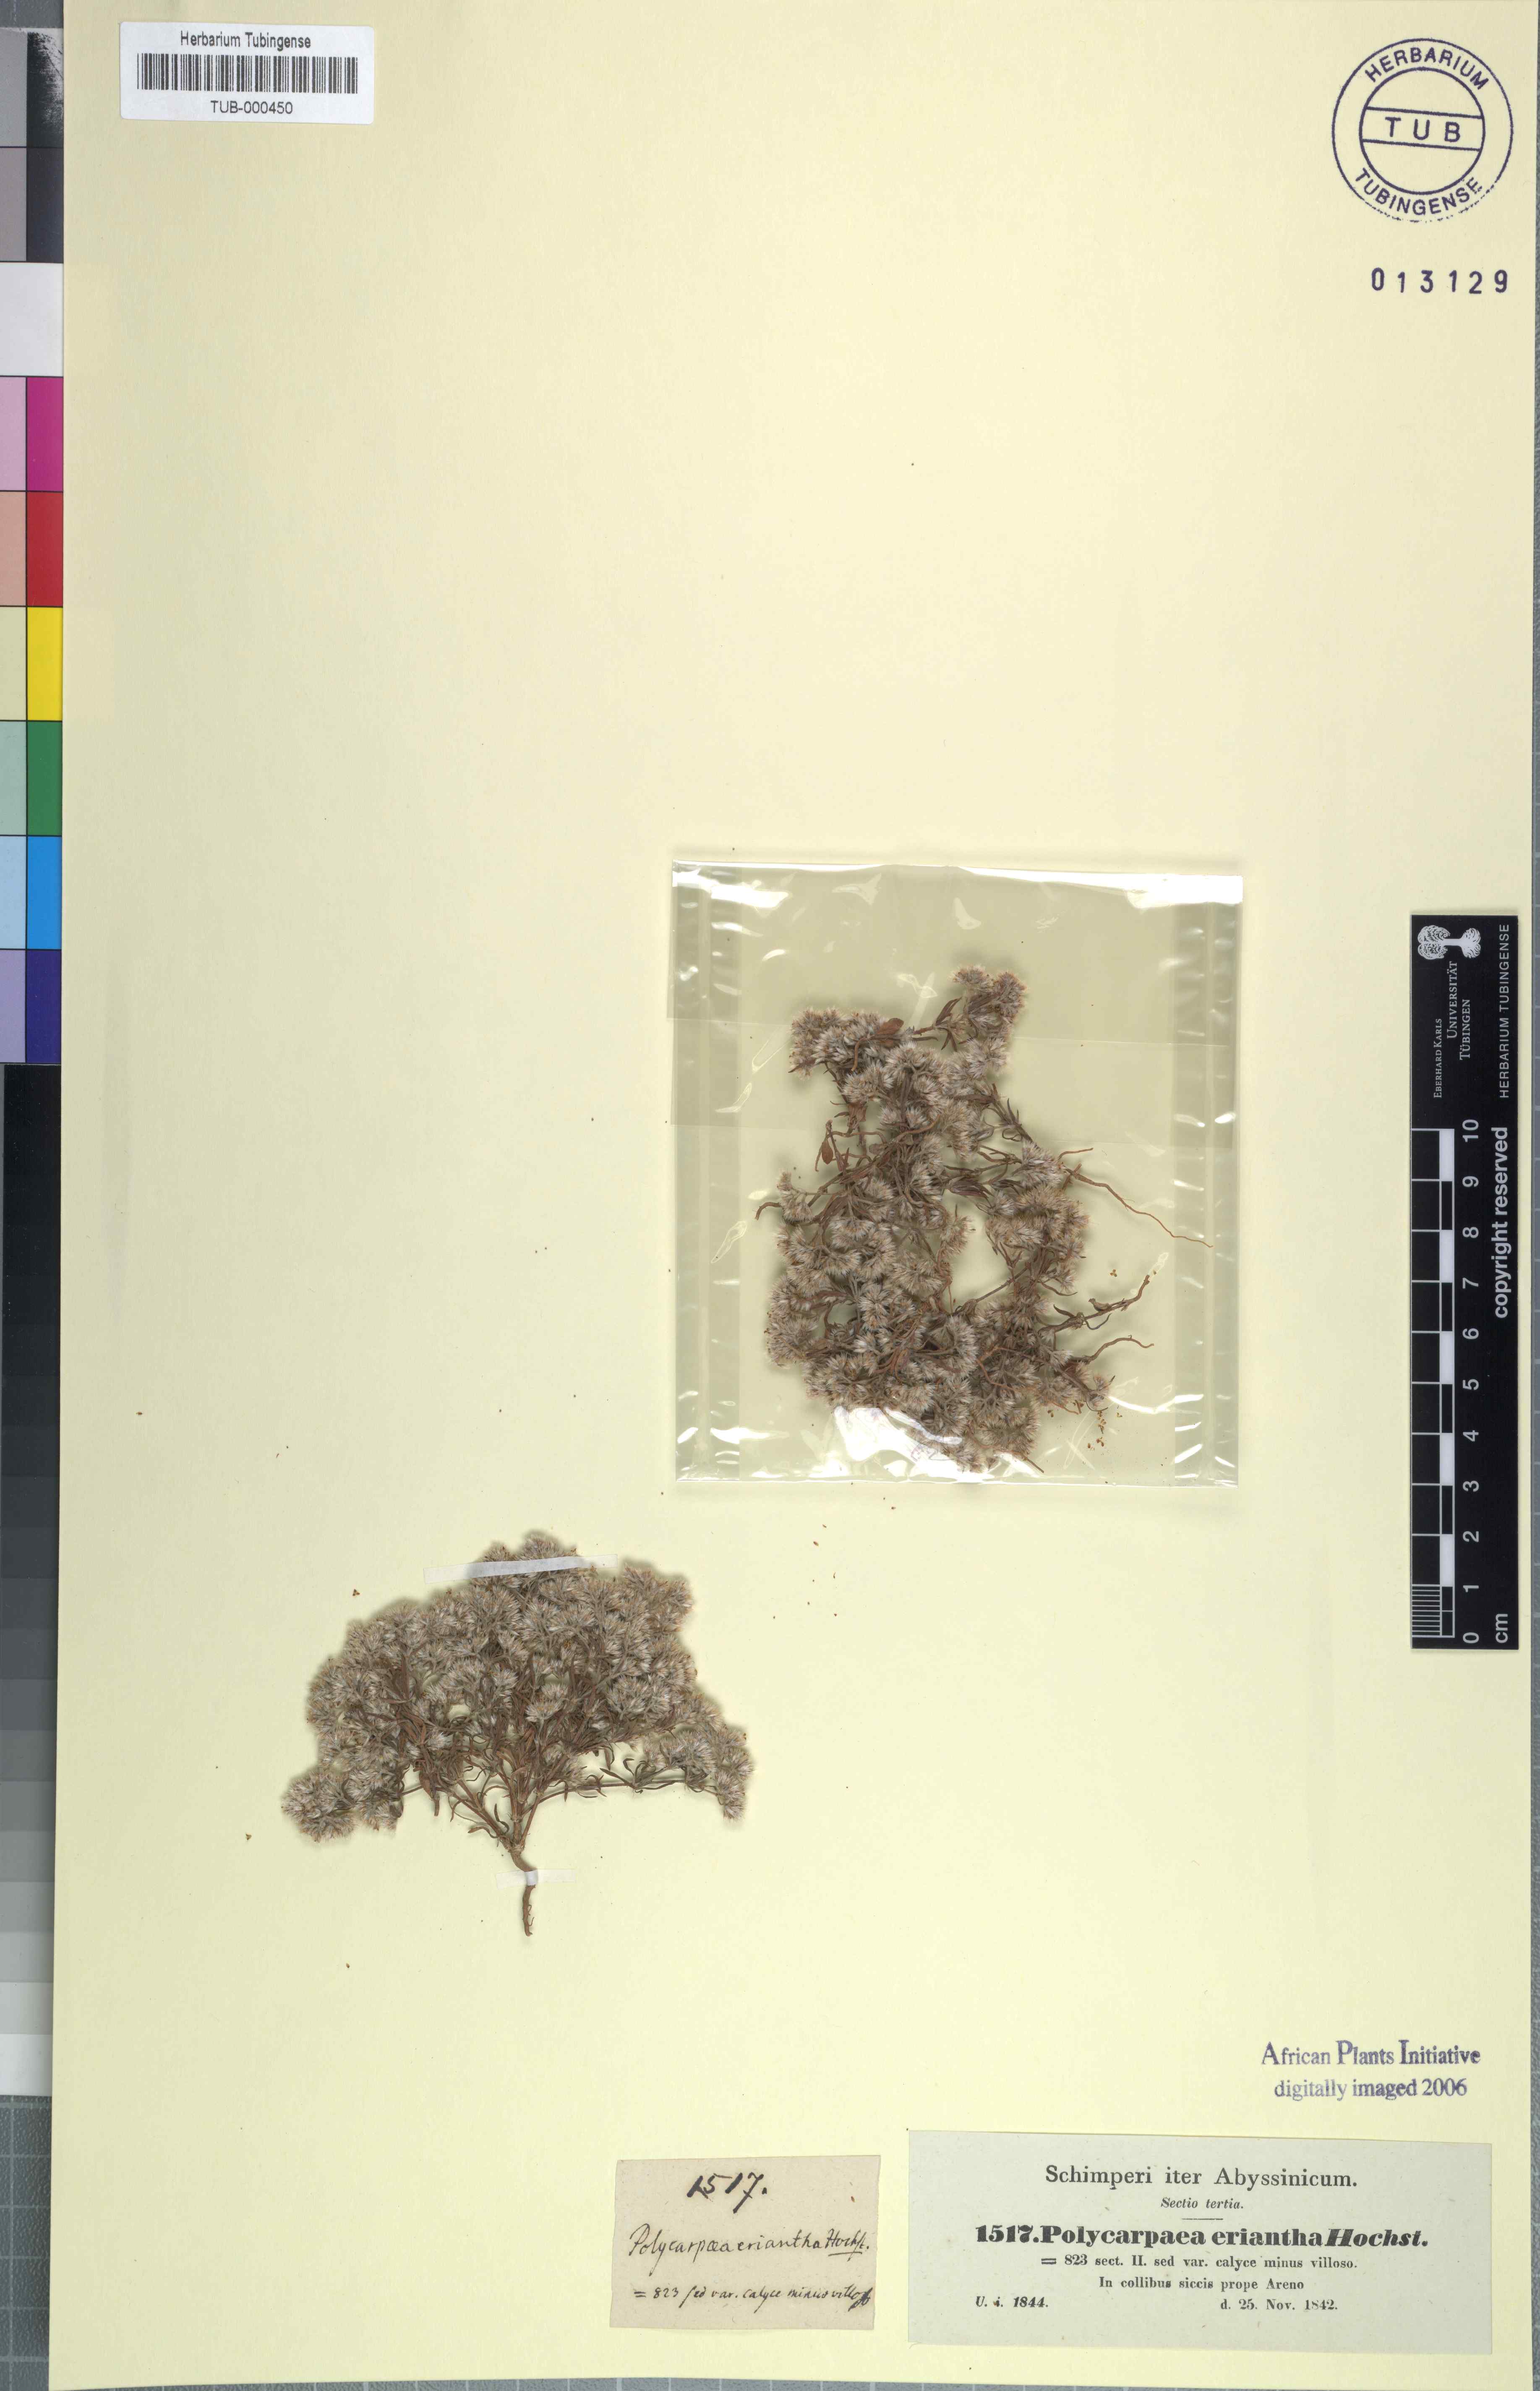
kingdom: Plantae
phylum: Tracheophyta
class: Magnoliopsida
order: Caryophyllales
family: Caryophyllaceae
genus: Polycarpaea
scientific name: Polycarpaea aristata
